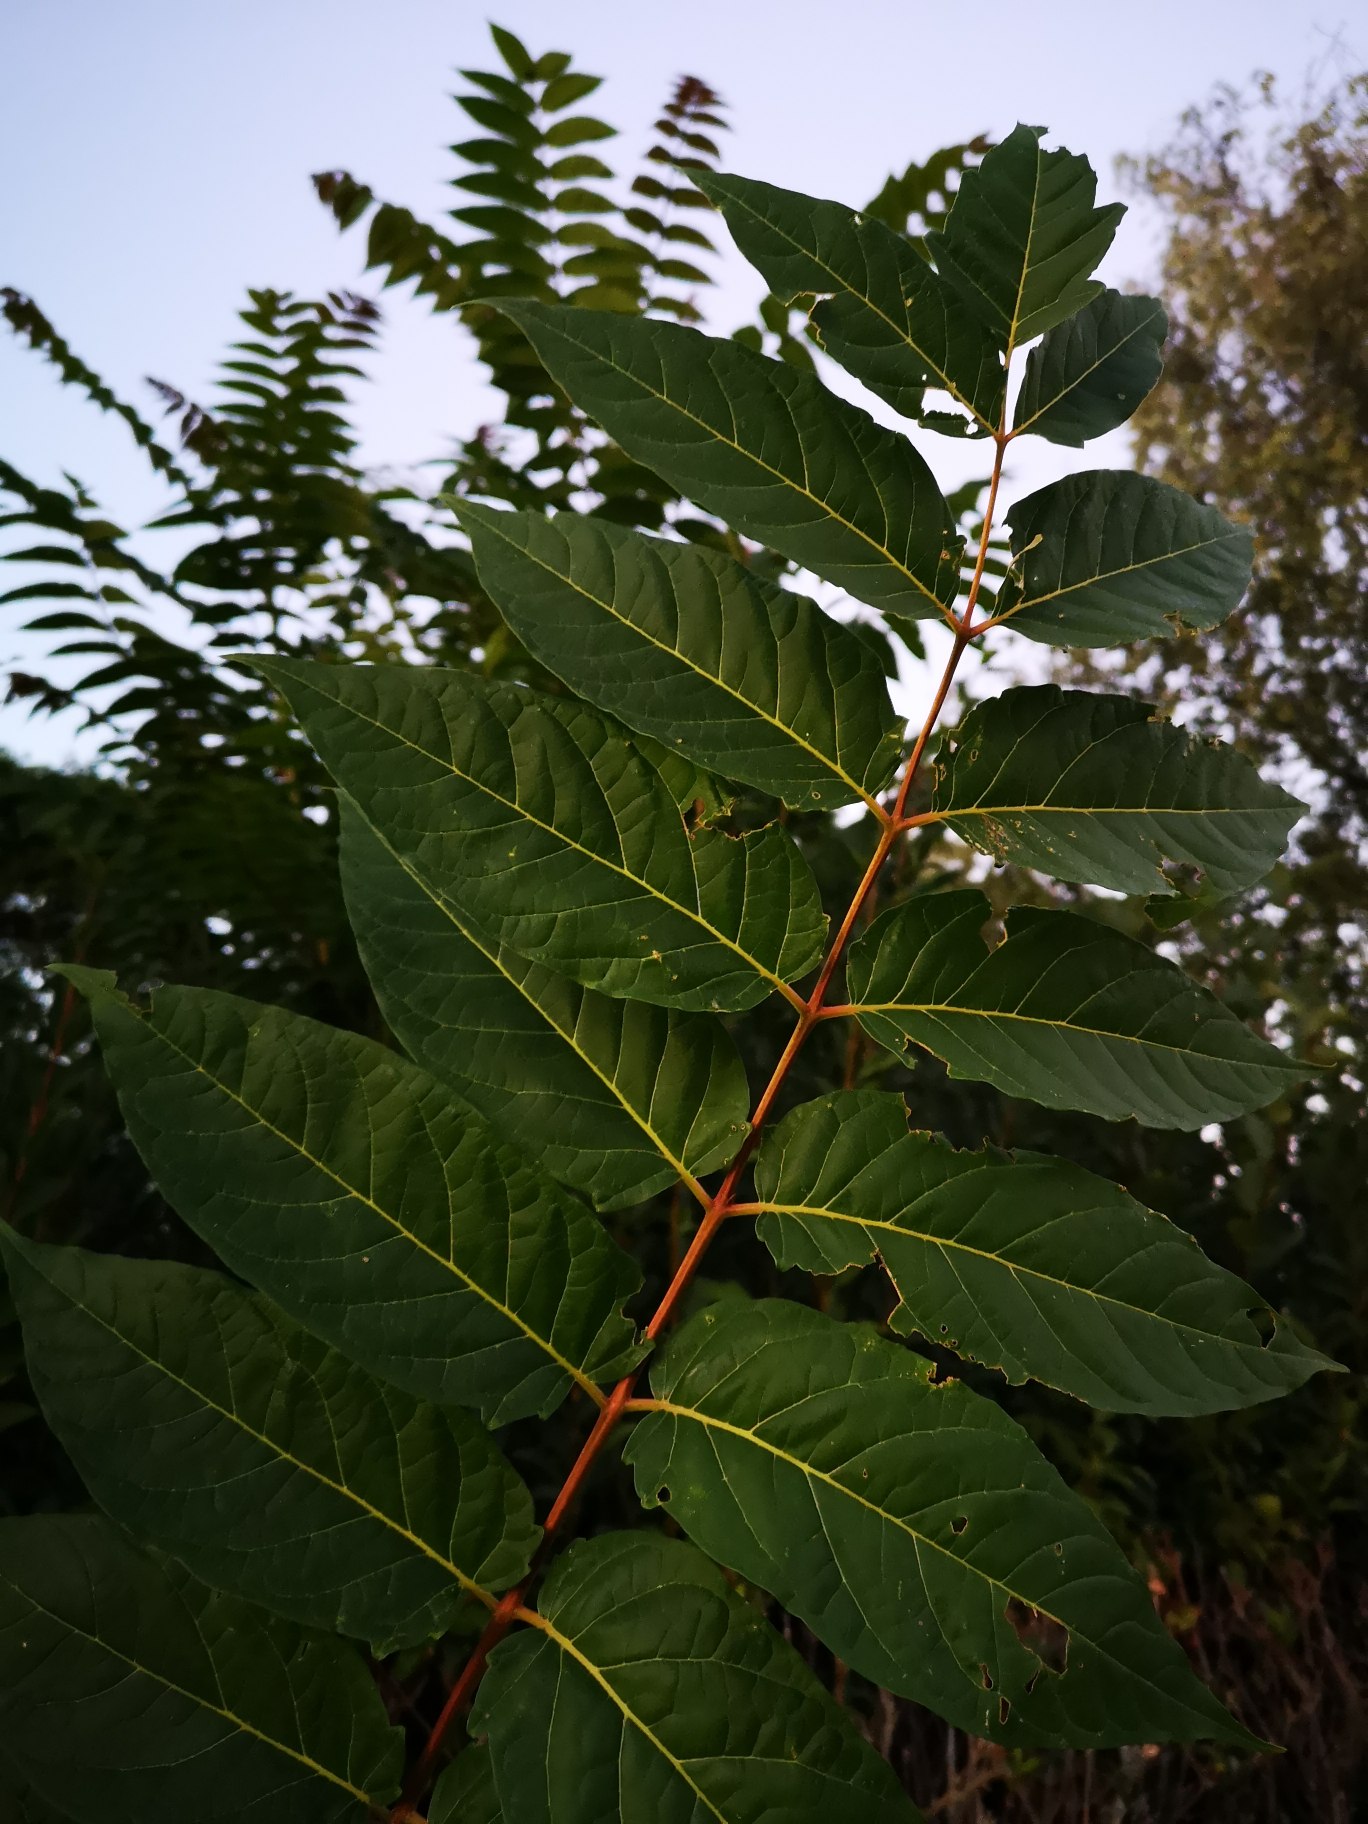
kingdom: Plantae
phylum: Tracheophyta
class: Magnoliopsida
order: Sapindales
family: Simaroubaceae
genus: Ailanthus
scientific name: Ailanthus altissima
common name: Skyrækker
